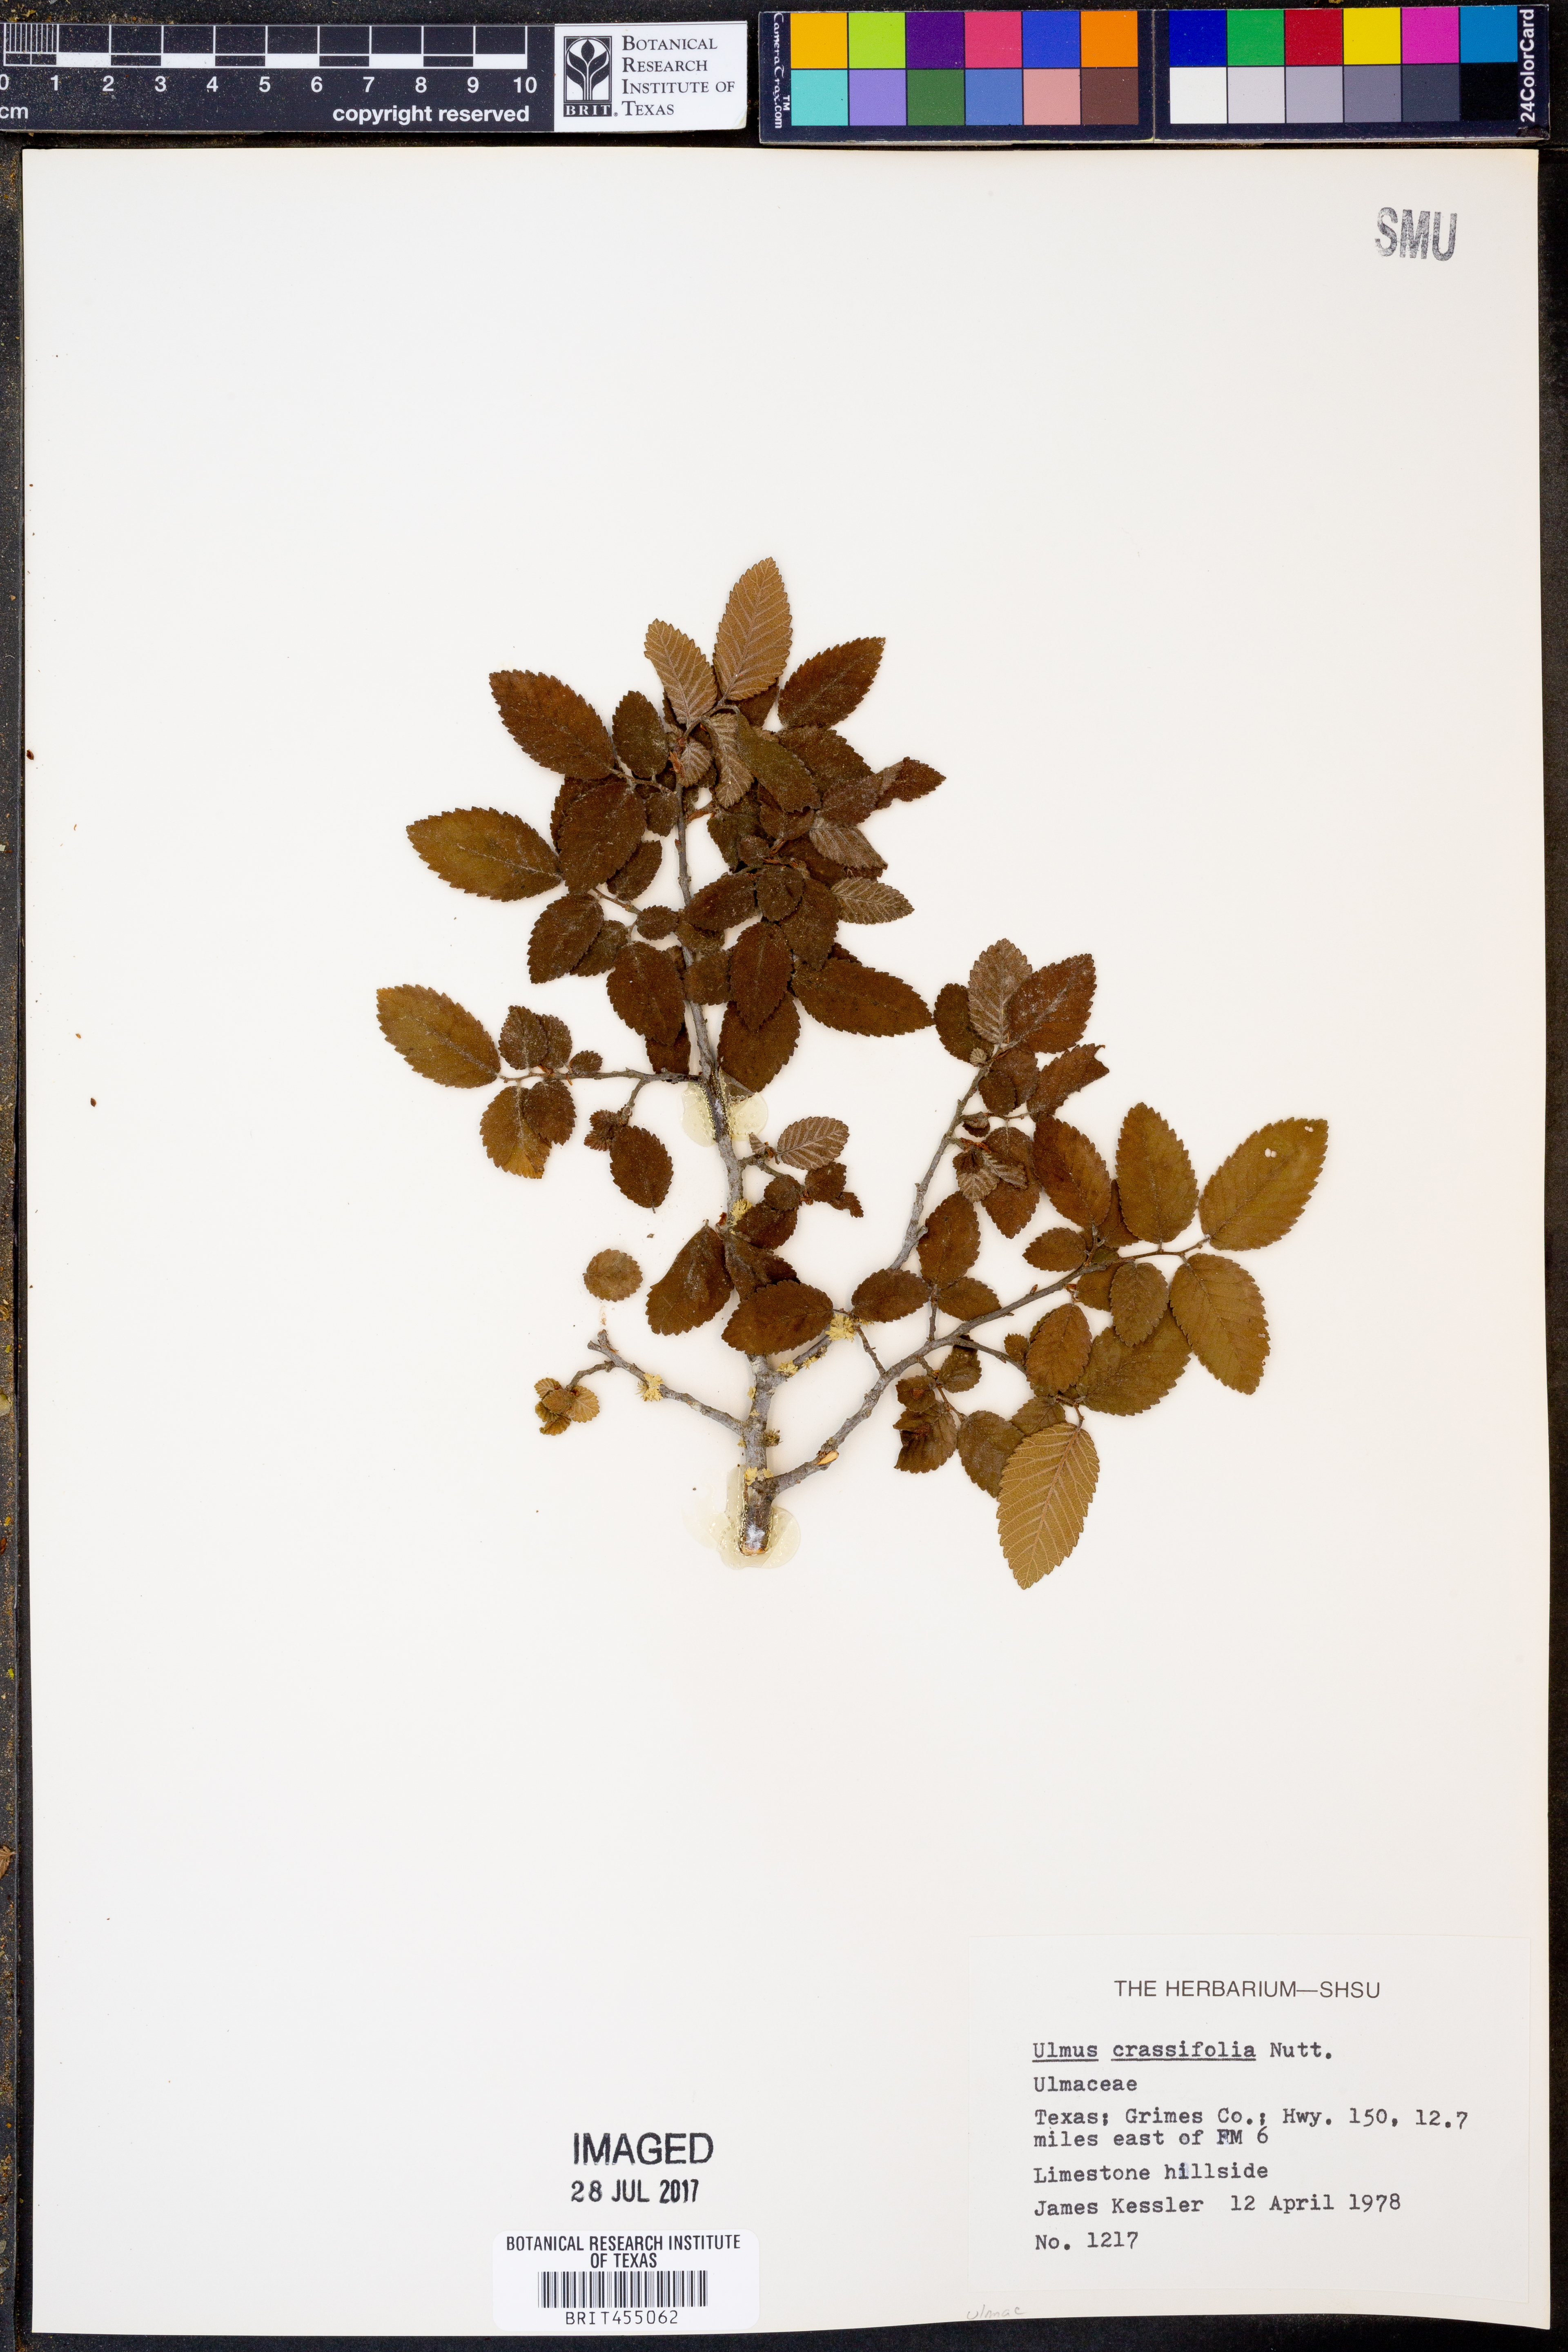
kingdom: Plantae
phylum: Tracheophyta
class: Magnoliopsida
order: Rosales
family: Ulmaceae
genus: Ulmus
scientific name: Ulmus crassifolia
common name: Basket elm
